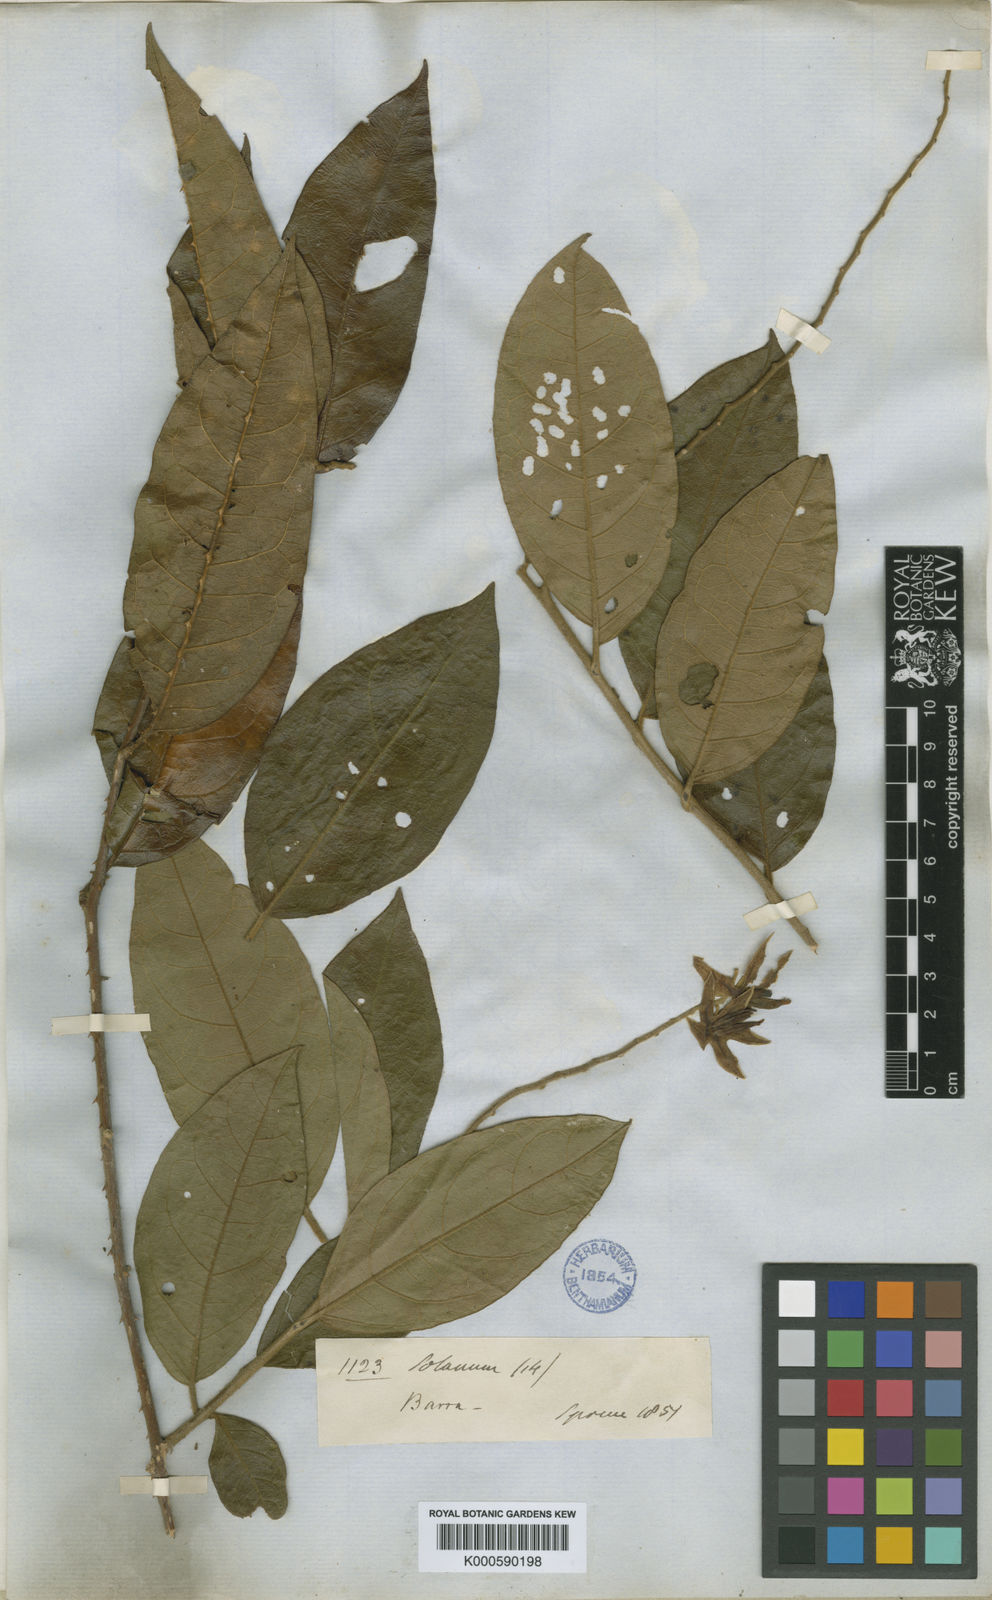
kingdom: Plantae
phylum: Tracheophyta
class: Magnoliopsida
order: Solanales
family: Solanaceae
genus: Solanum
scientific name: Solanum
